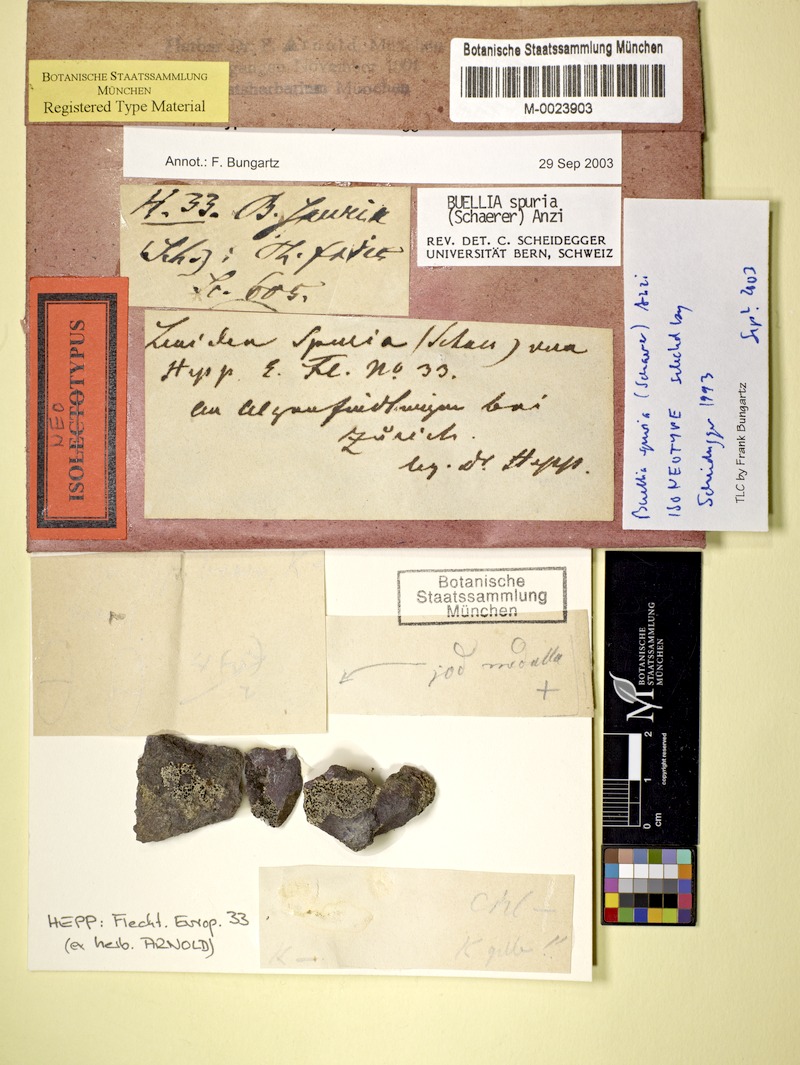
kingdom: Fungi
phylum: Ascomycota
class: Lecanoromycetes
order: Caliciales
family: Caliciaceae
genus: Buellia
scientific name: Buellia spuria
